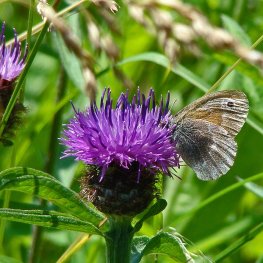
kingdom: Animalia
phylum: Arthropoda
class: Insecta
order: Lepidoptera
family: Nymphalidae
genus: Coenonympha
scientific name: Coenonympha tullia
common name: Large Heath
